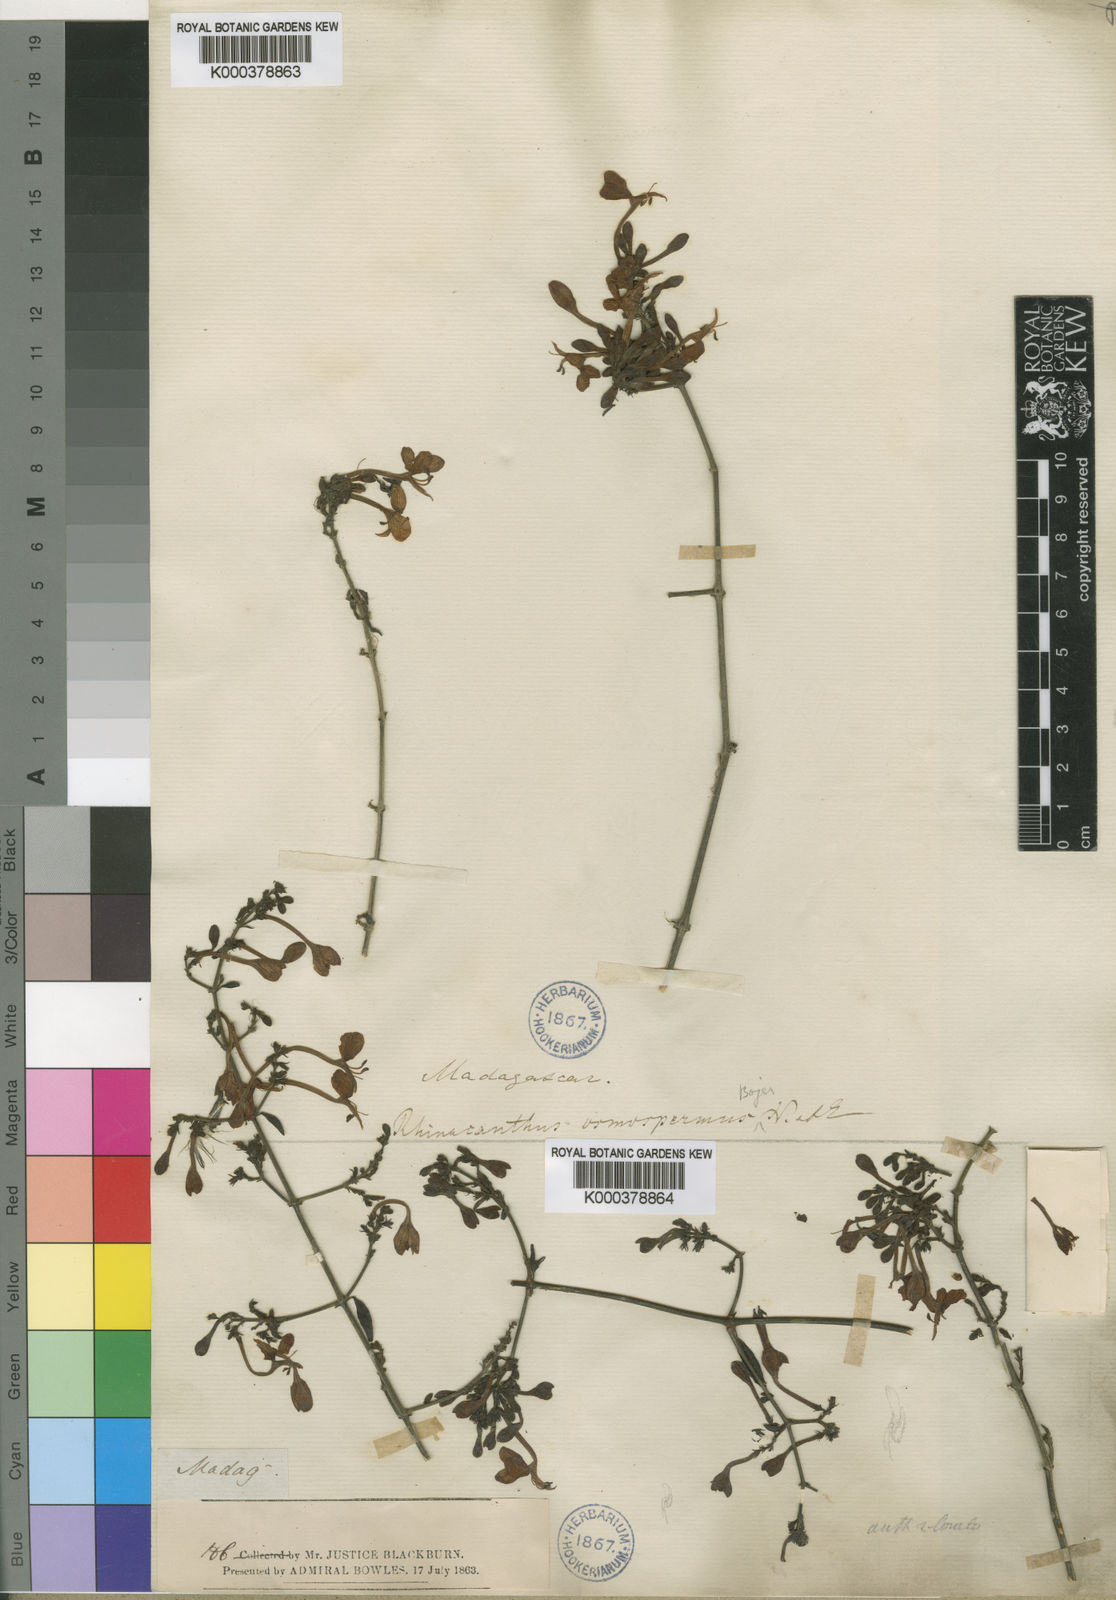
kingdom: Plantae
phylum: Tracheophyta
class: Magnoliopsida
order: Lamiales
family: Acanthaceae
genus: Rhinacanthus
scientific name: Rhinacanthus osmospermus
